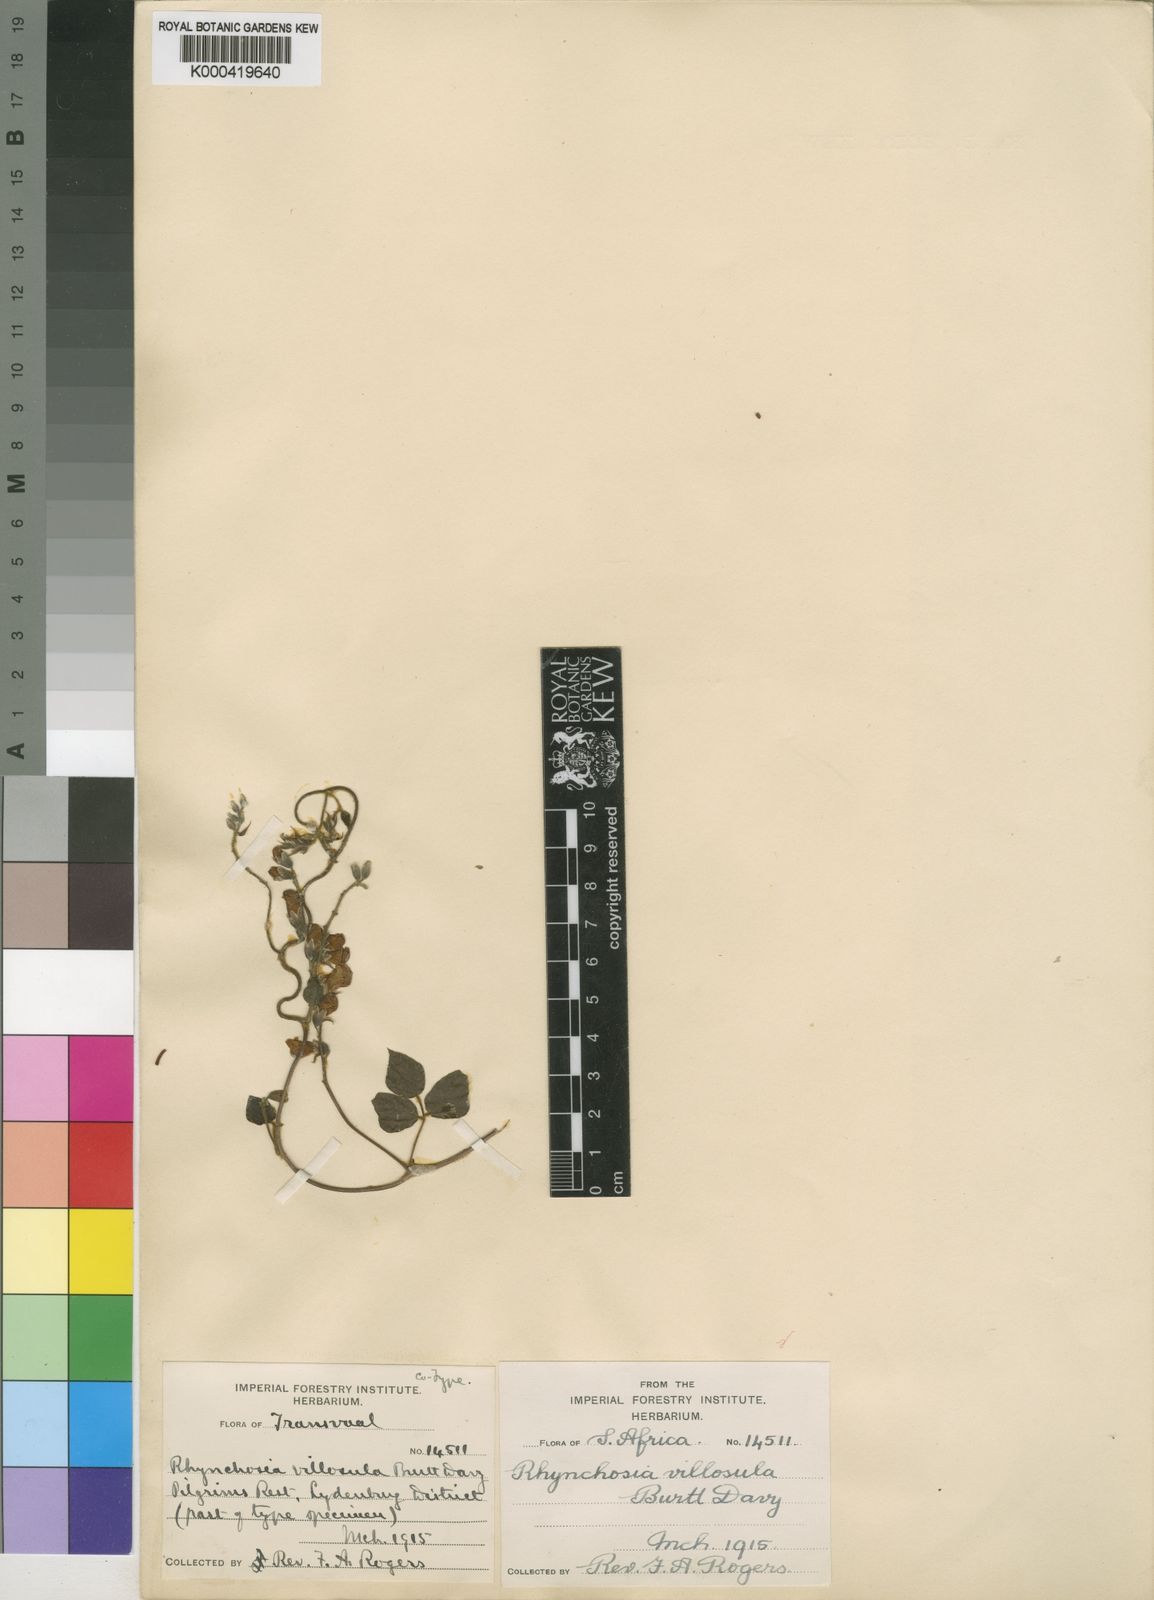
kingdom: Plantae
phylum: Tracheophyta
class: Magnoliopsida
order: Fabales
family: Fabaceae
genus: Rhynchosia
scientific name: Rhynchosia caribaea
